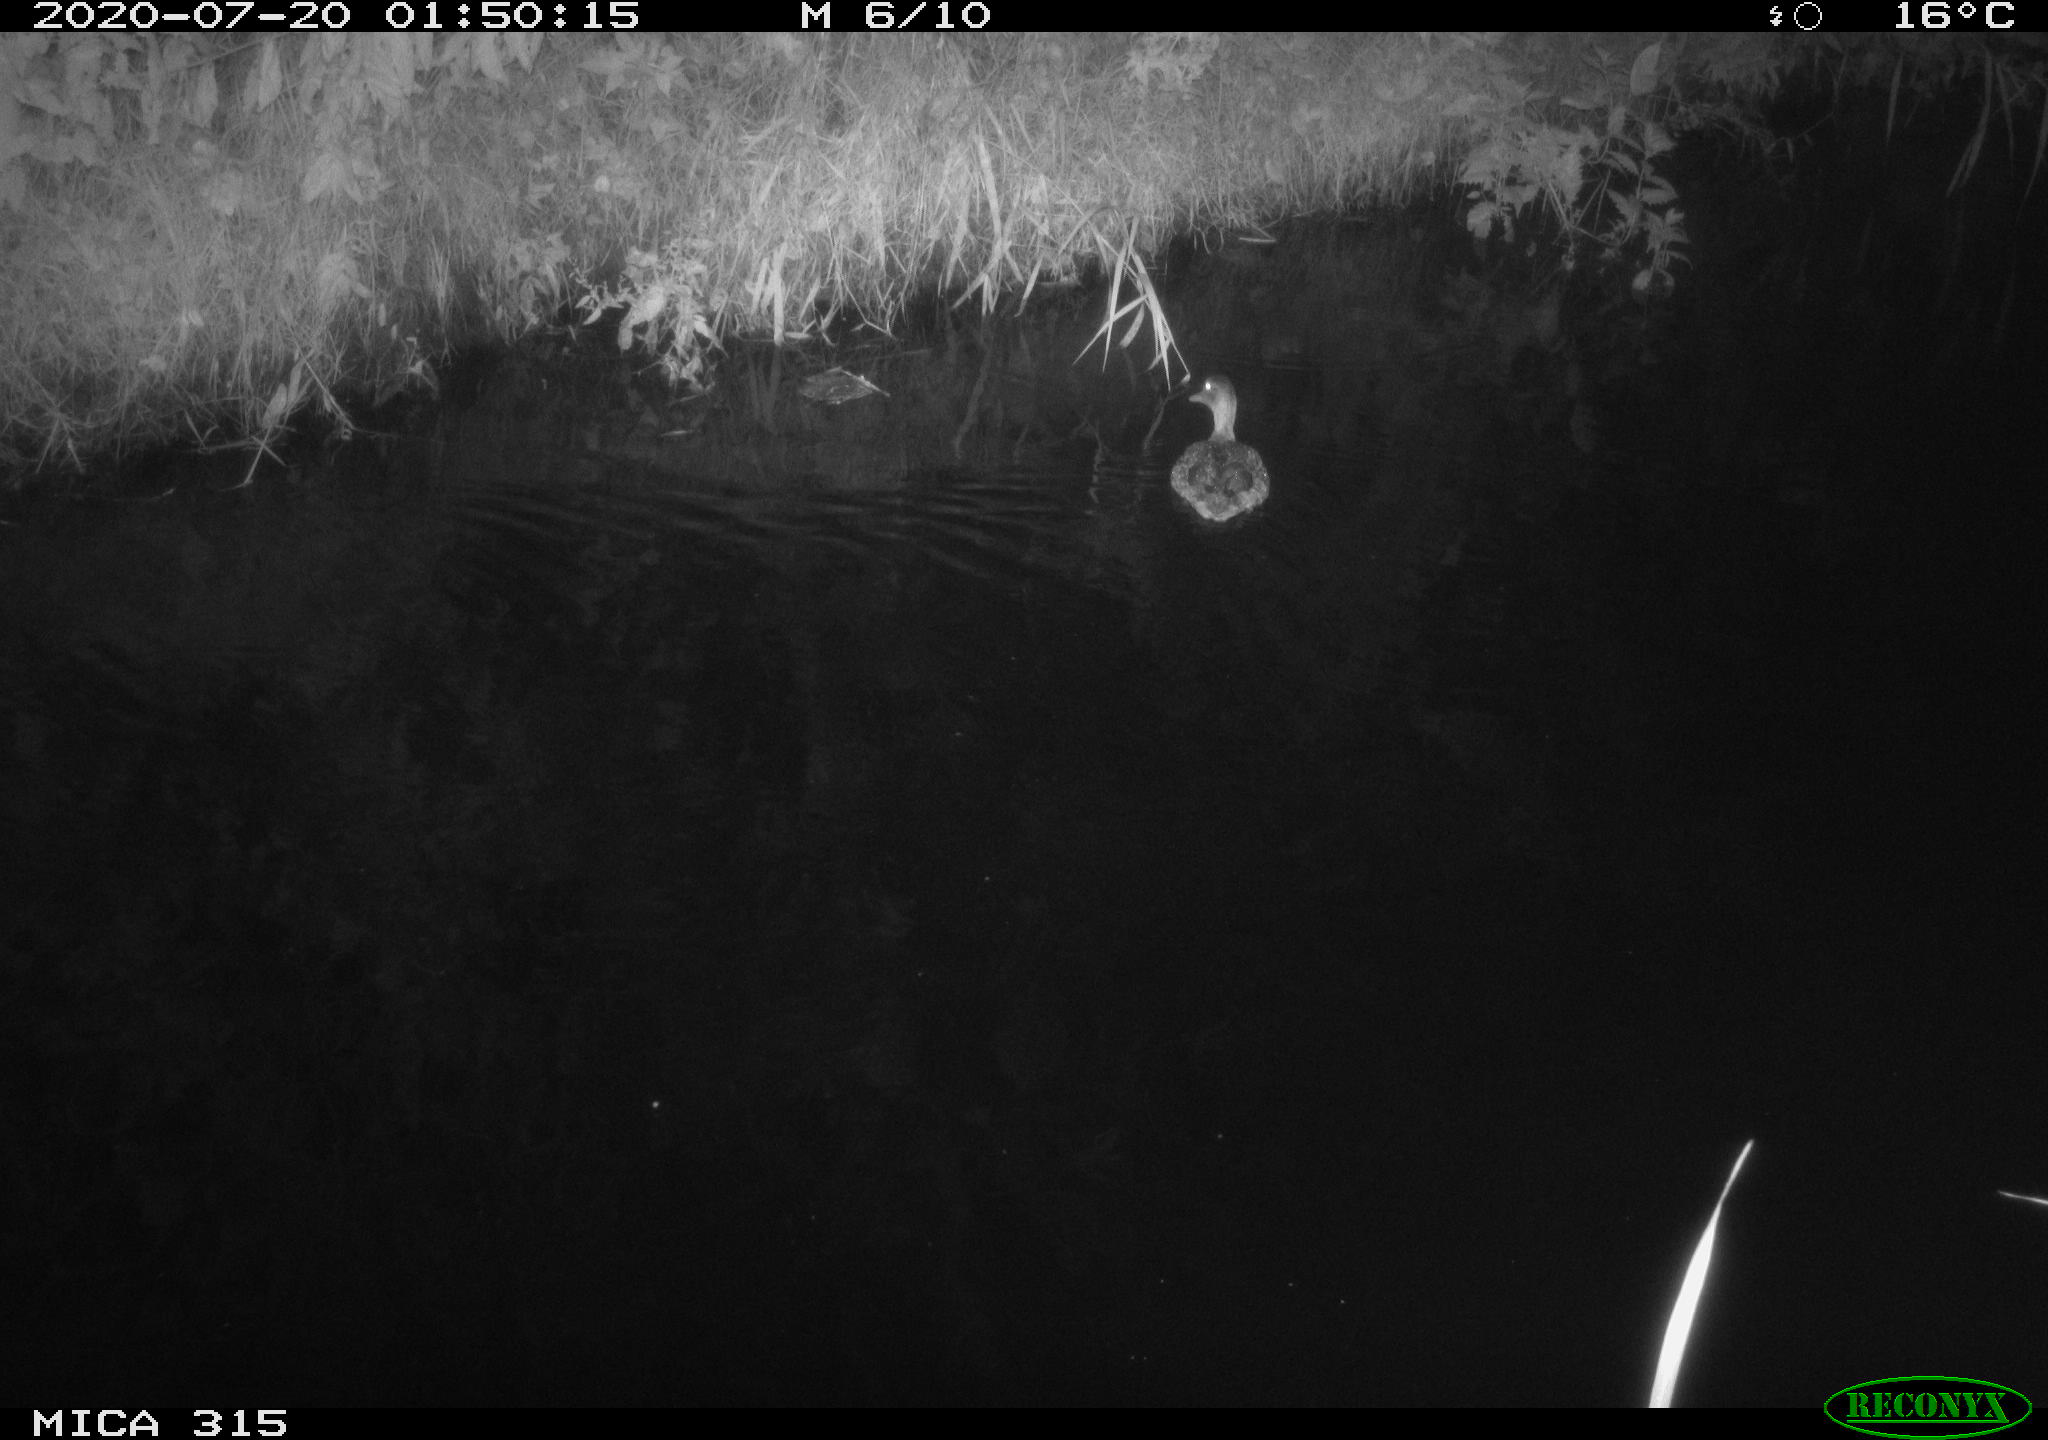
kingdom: Animalia
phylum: Chordata
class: Aves
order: Anseriformes
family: Anatidae
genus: Anas
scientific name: Anas platyrhynchos
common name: Mallard
